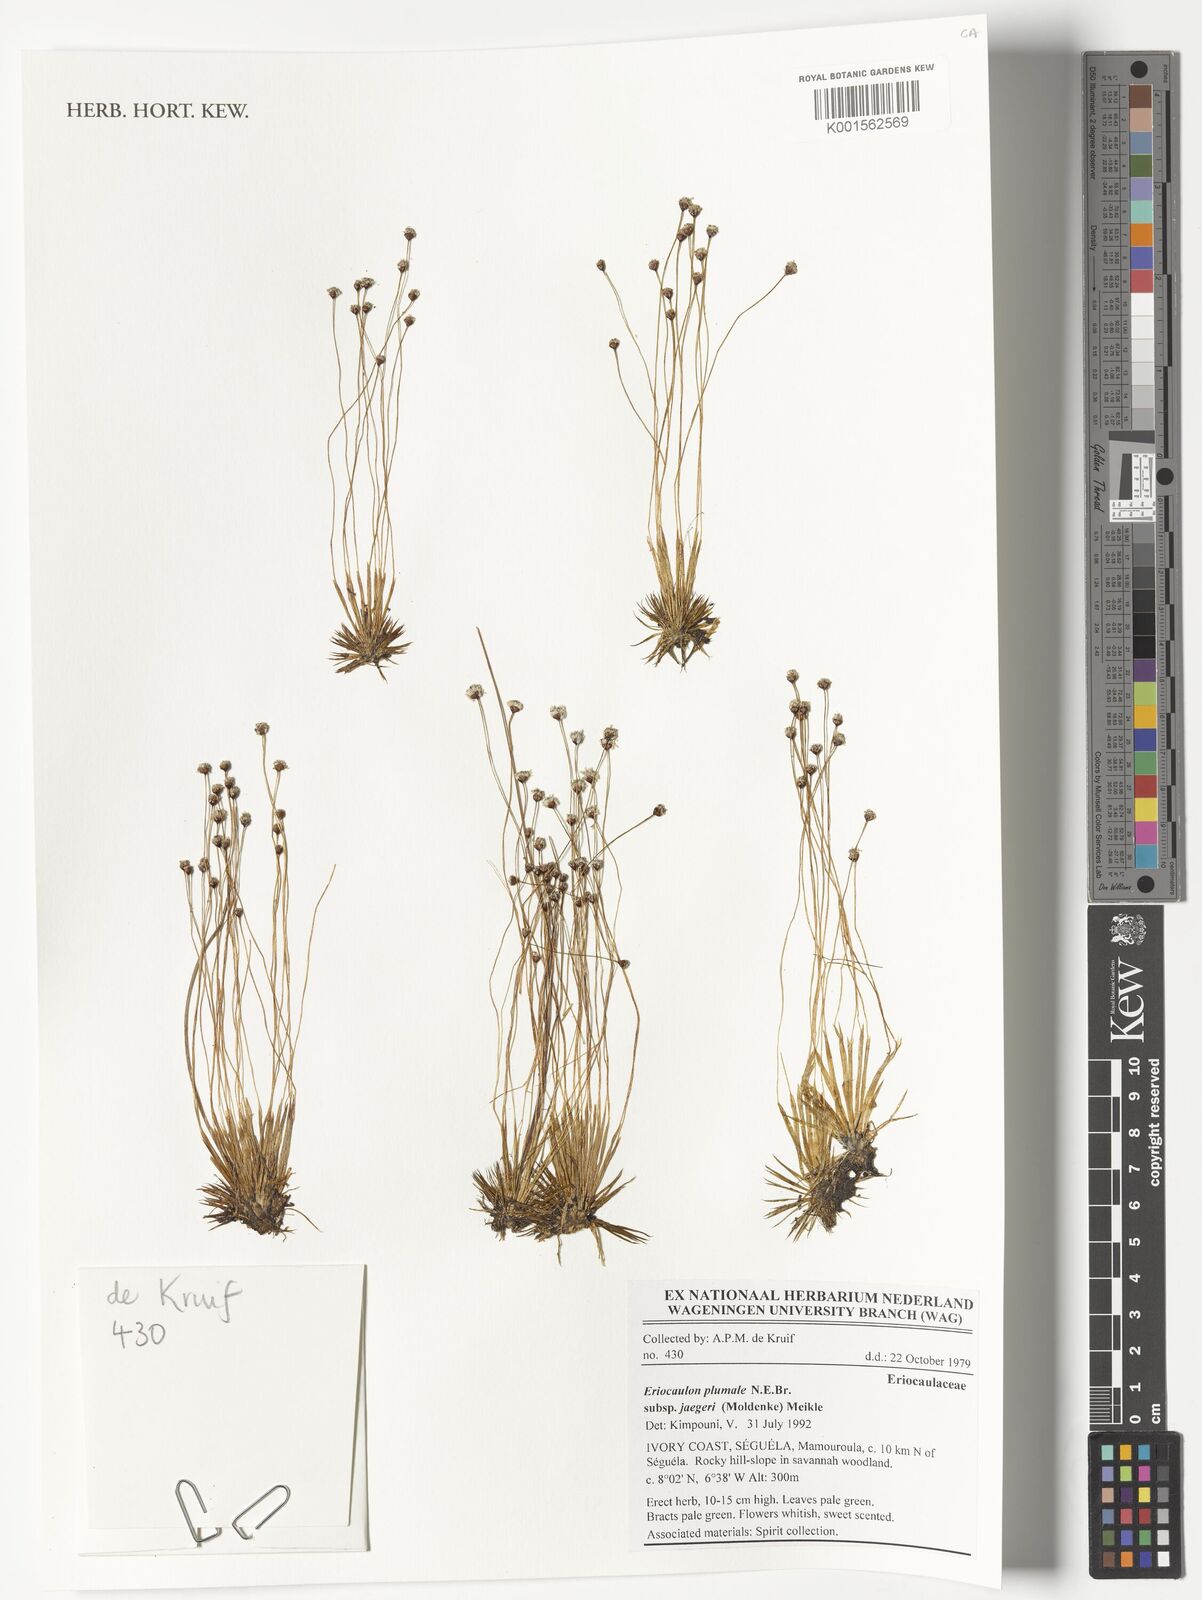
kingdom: Plantae
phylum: Tracheophyta
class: Liliopsida
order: Poales
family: Eriocaulaceae
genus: Eriocaulon
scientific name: Eriocaulon plumale
